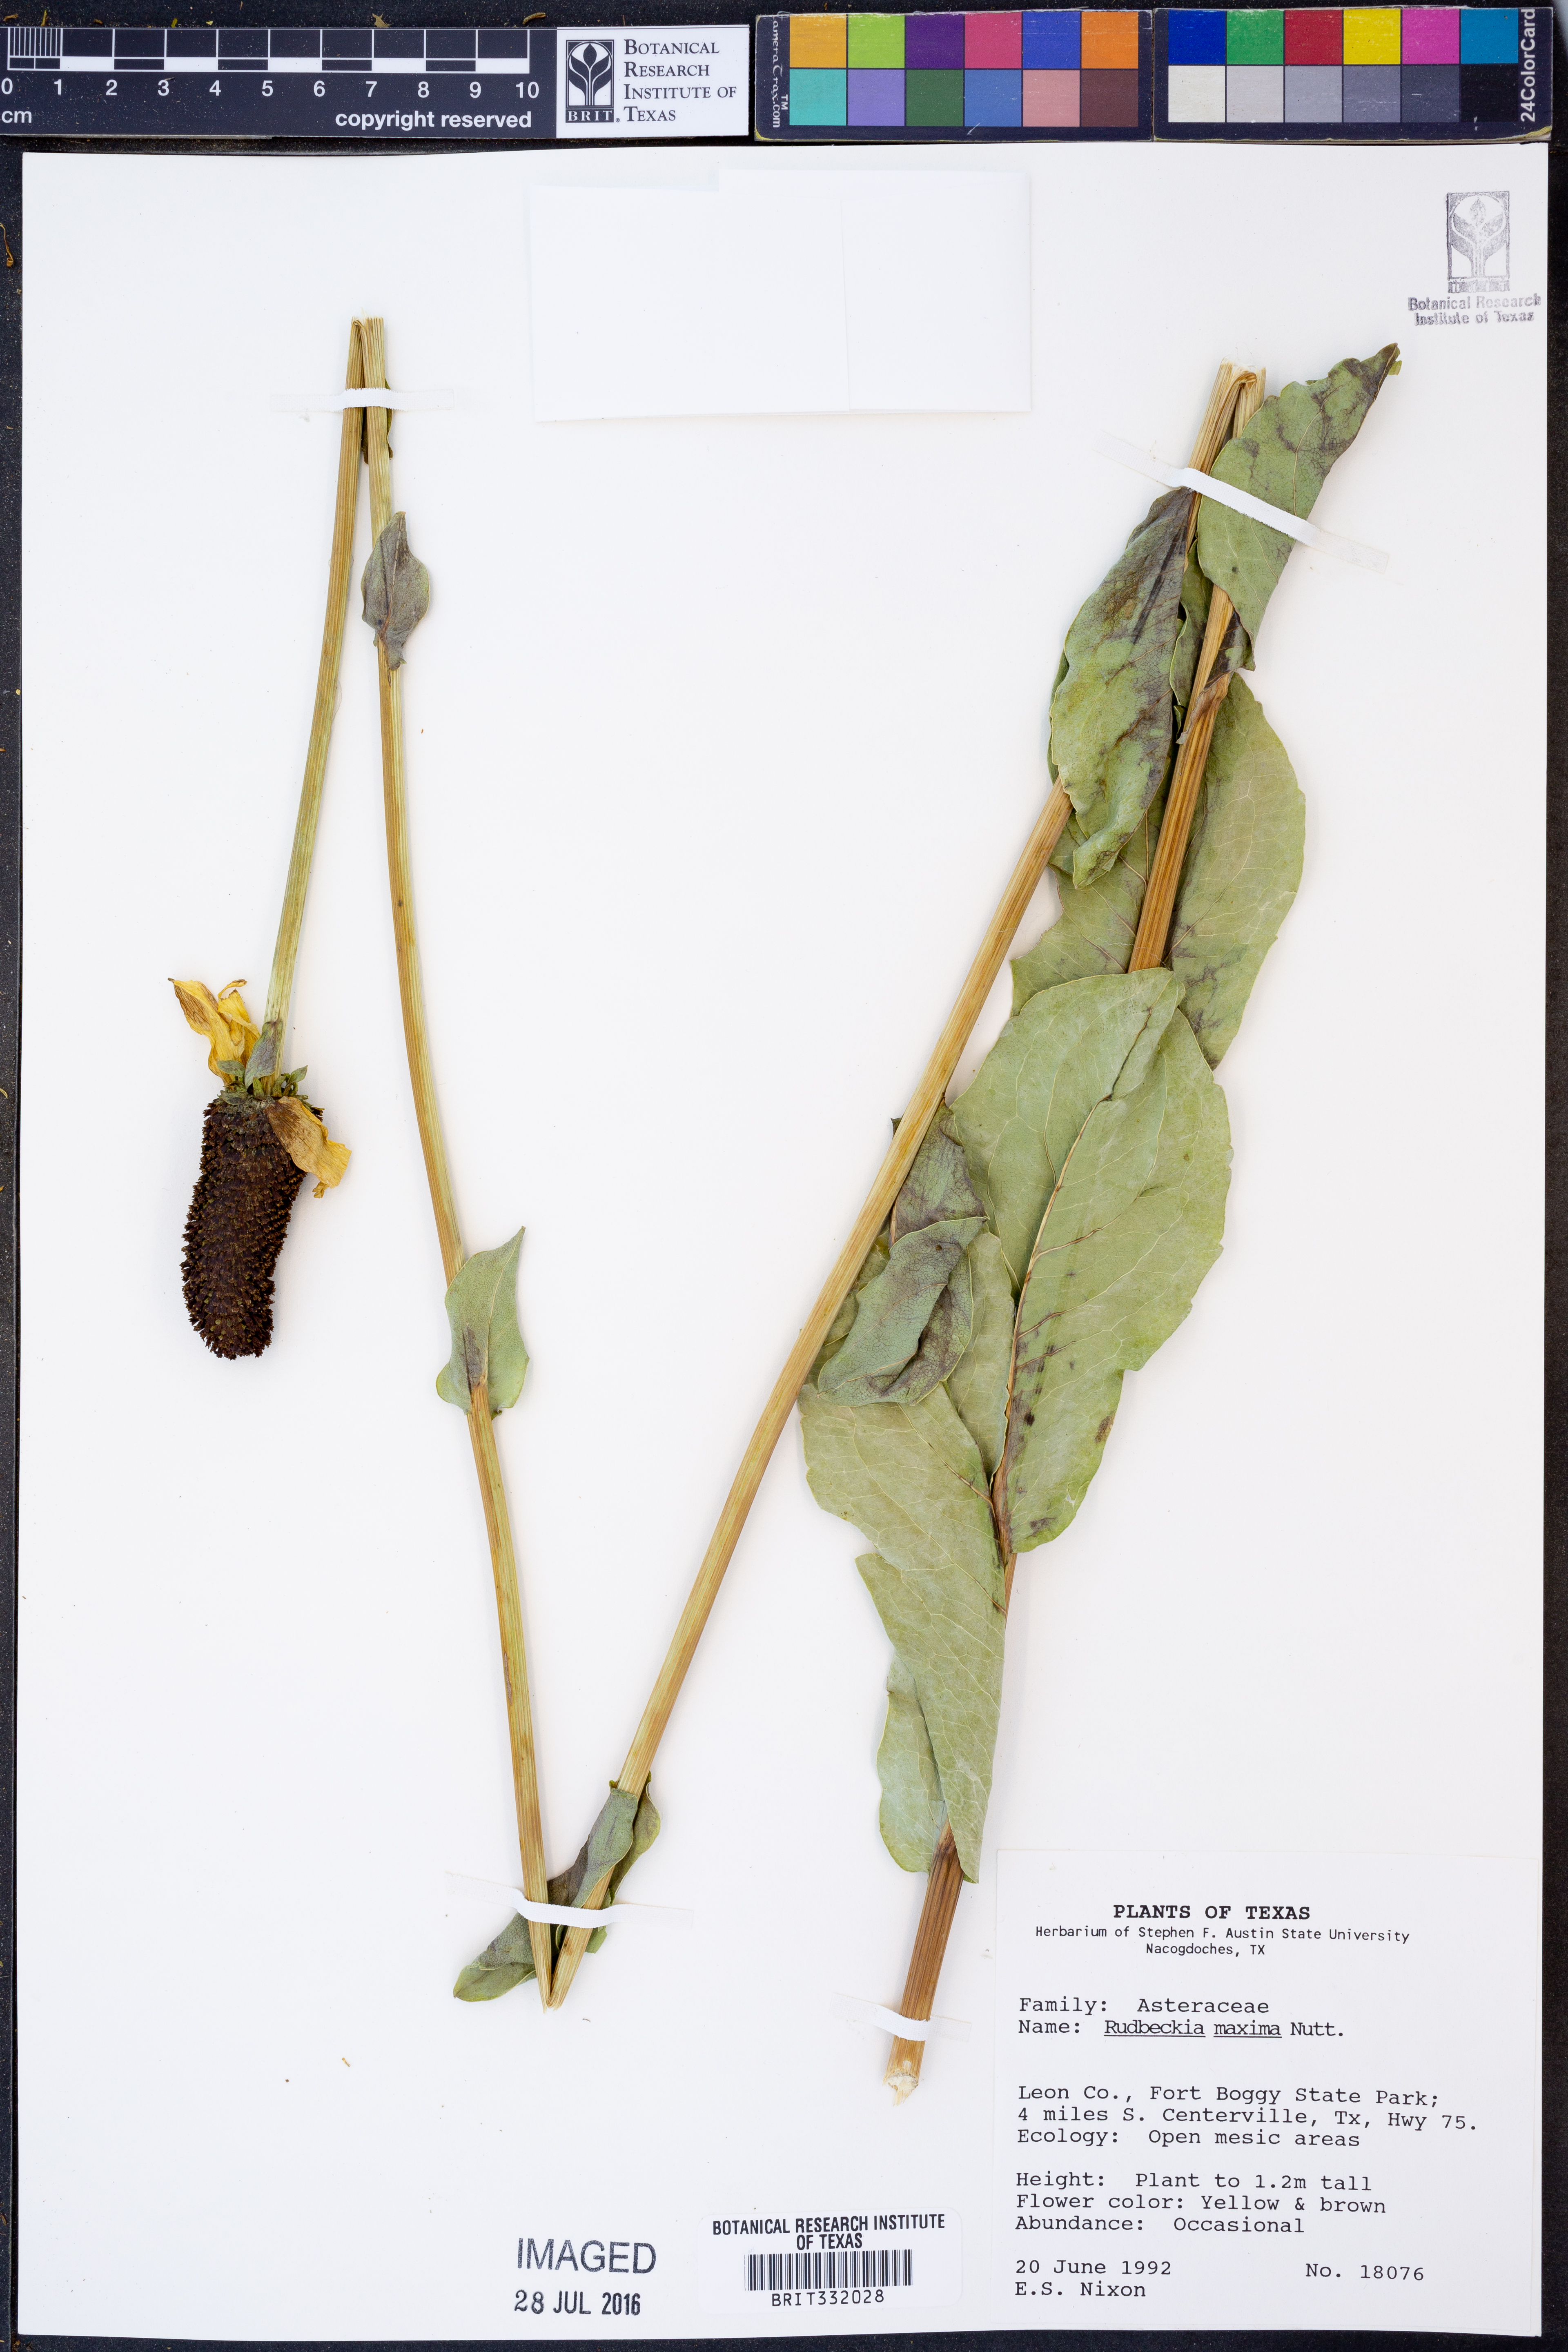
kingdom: Plantae
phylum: Tracheophyta
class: Magnoliopsida
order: Asterales
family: Asteraceae
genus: Rudbeckia
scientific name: Rudbeckia maxima
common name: Cabbage coneflower
